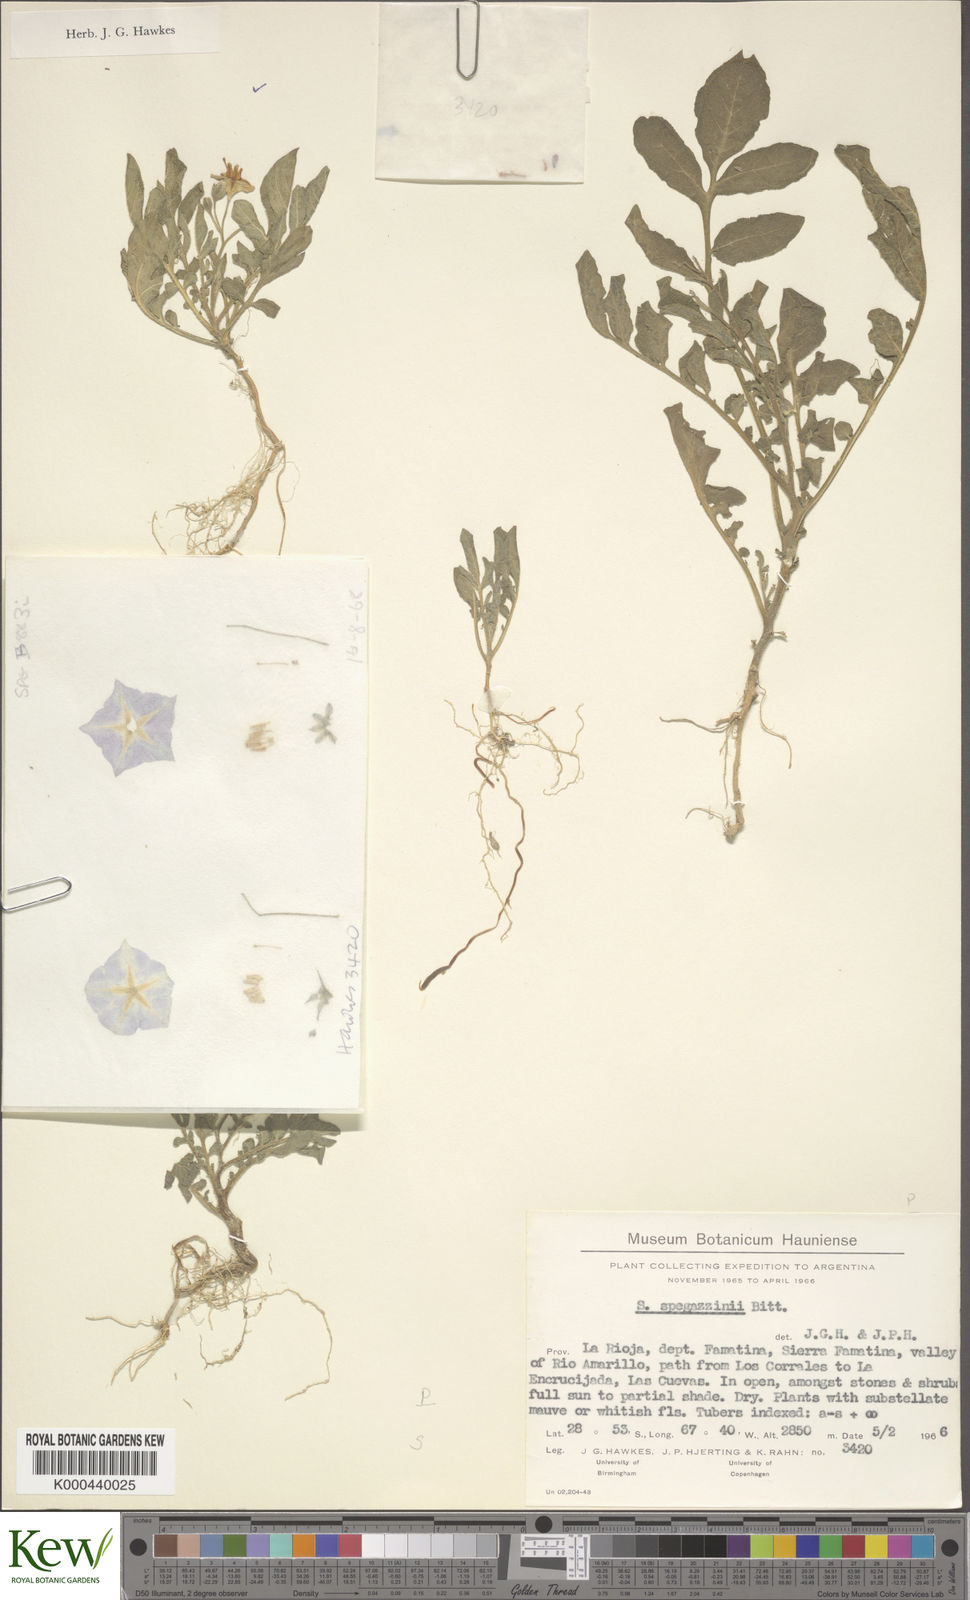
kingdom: Plantae
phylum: Tracheophyta
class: Magnoliopsida
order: Solanales
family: Solanaceae
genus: Solanum
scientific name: Solanum brevicaule
